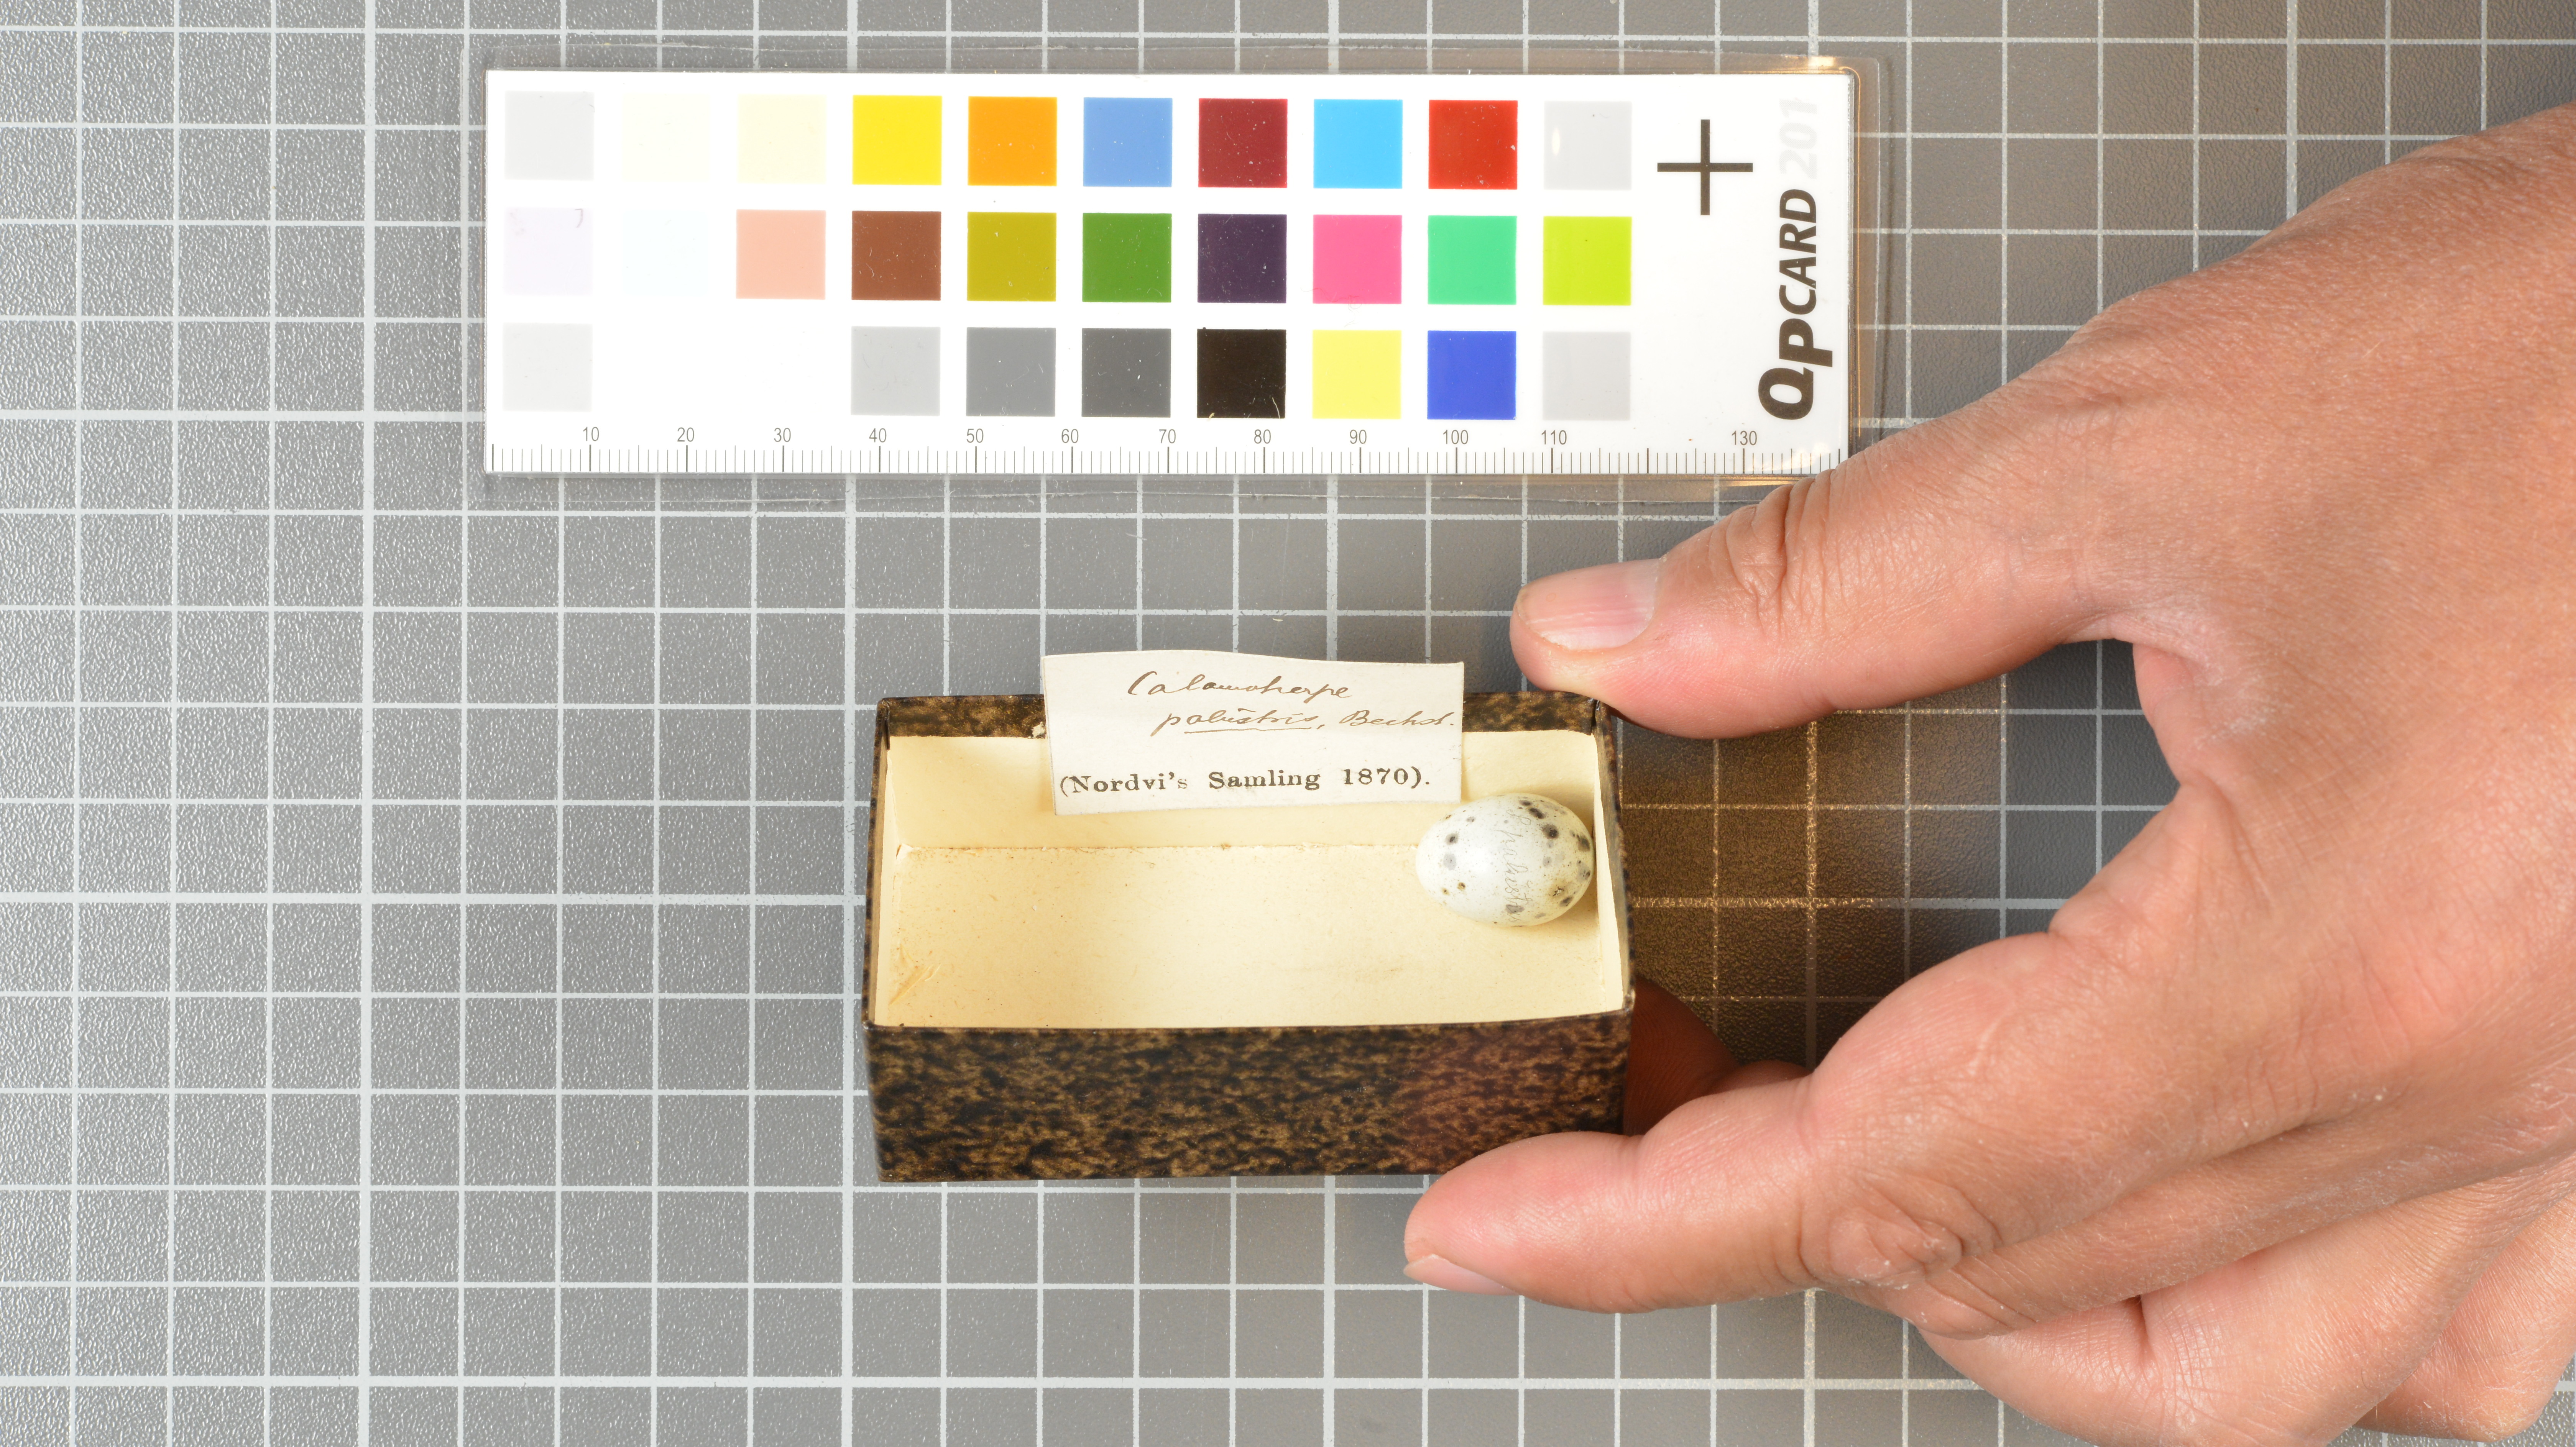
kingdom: Animalia
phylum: Chordata
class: Aves
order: Passeriformes
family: Acrocephalidae
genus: Acrocephalus
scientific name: Acrocephalus palustris
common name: Marsh warbler
